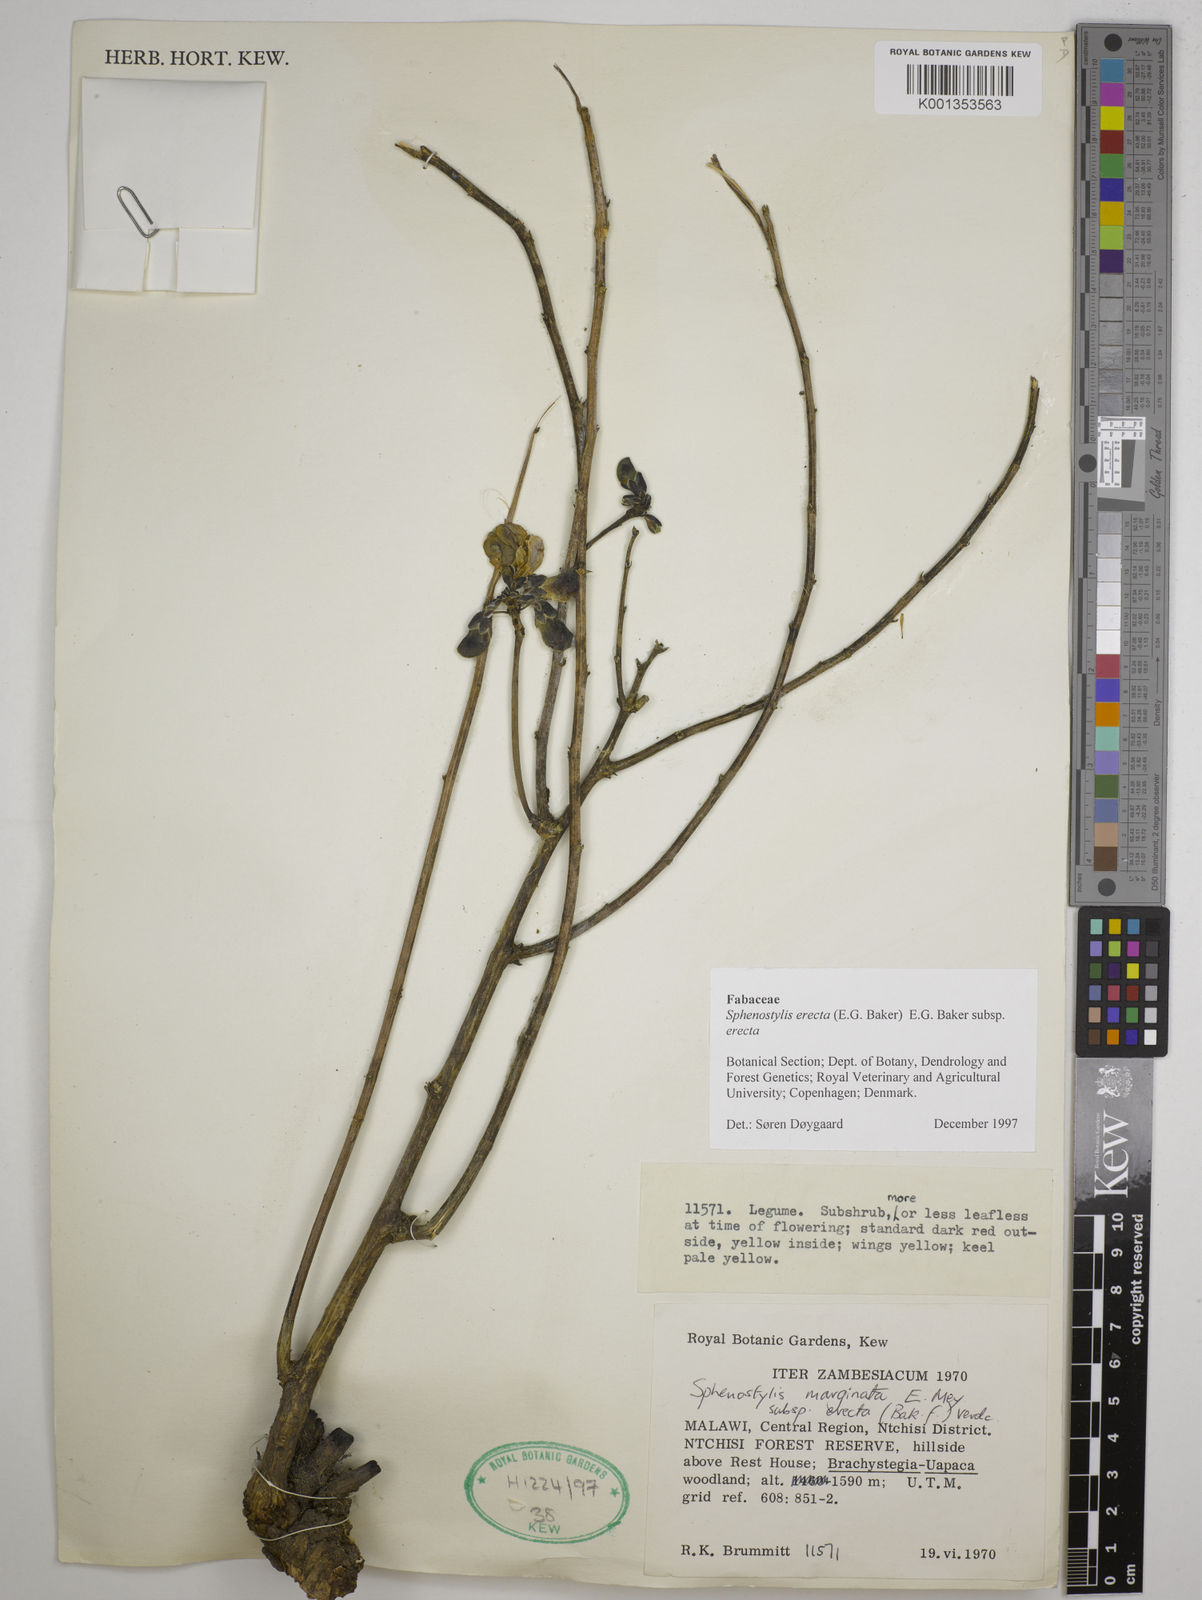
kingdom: Plantae
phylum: Tracheophyta
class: Magnoliopsida
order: Fabales
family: Fabaceae
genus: Sphenostylis
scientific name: Sphenostylis erecta
